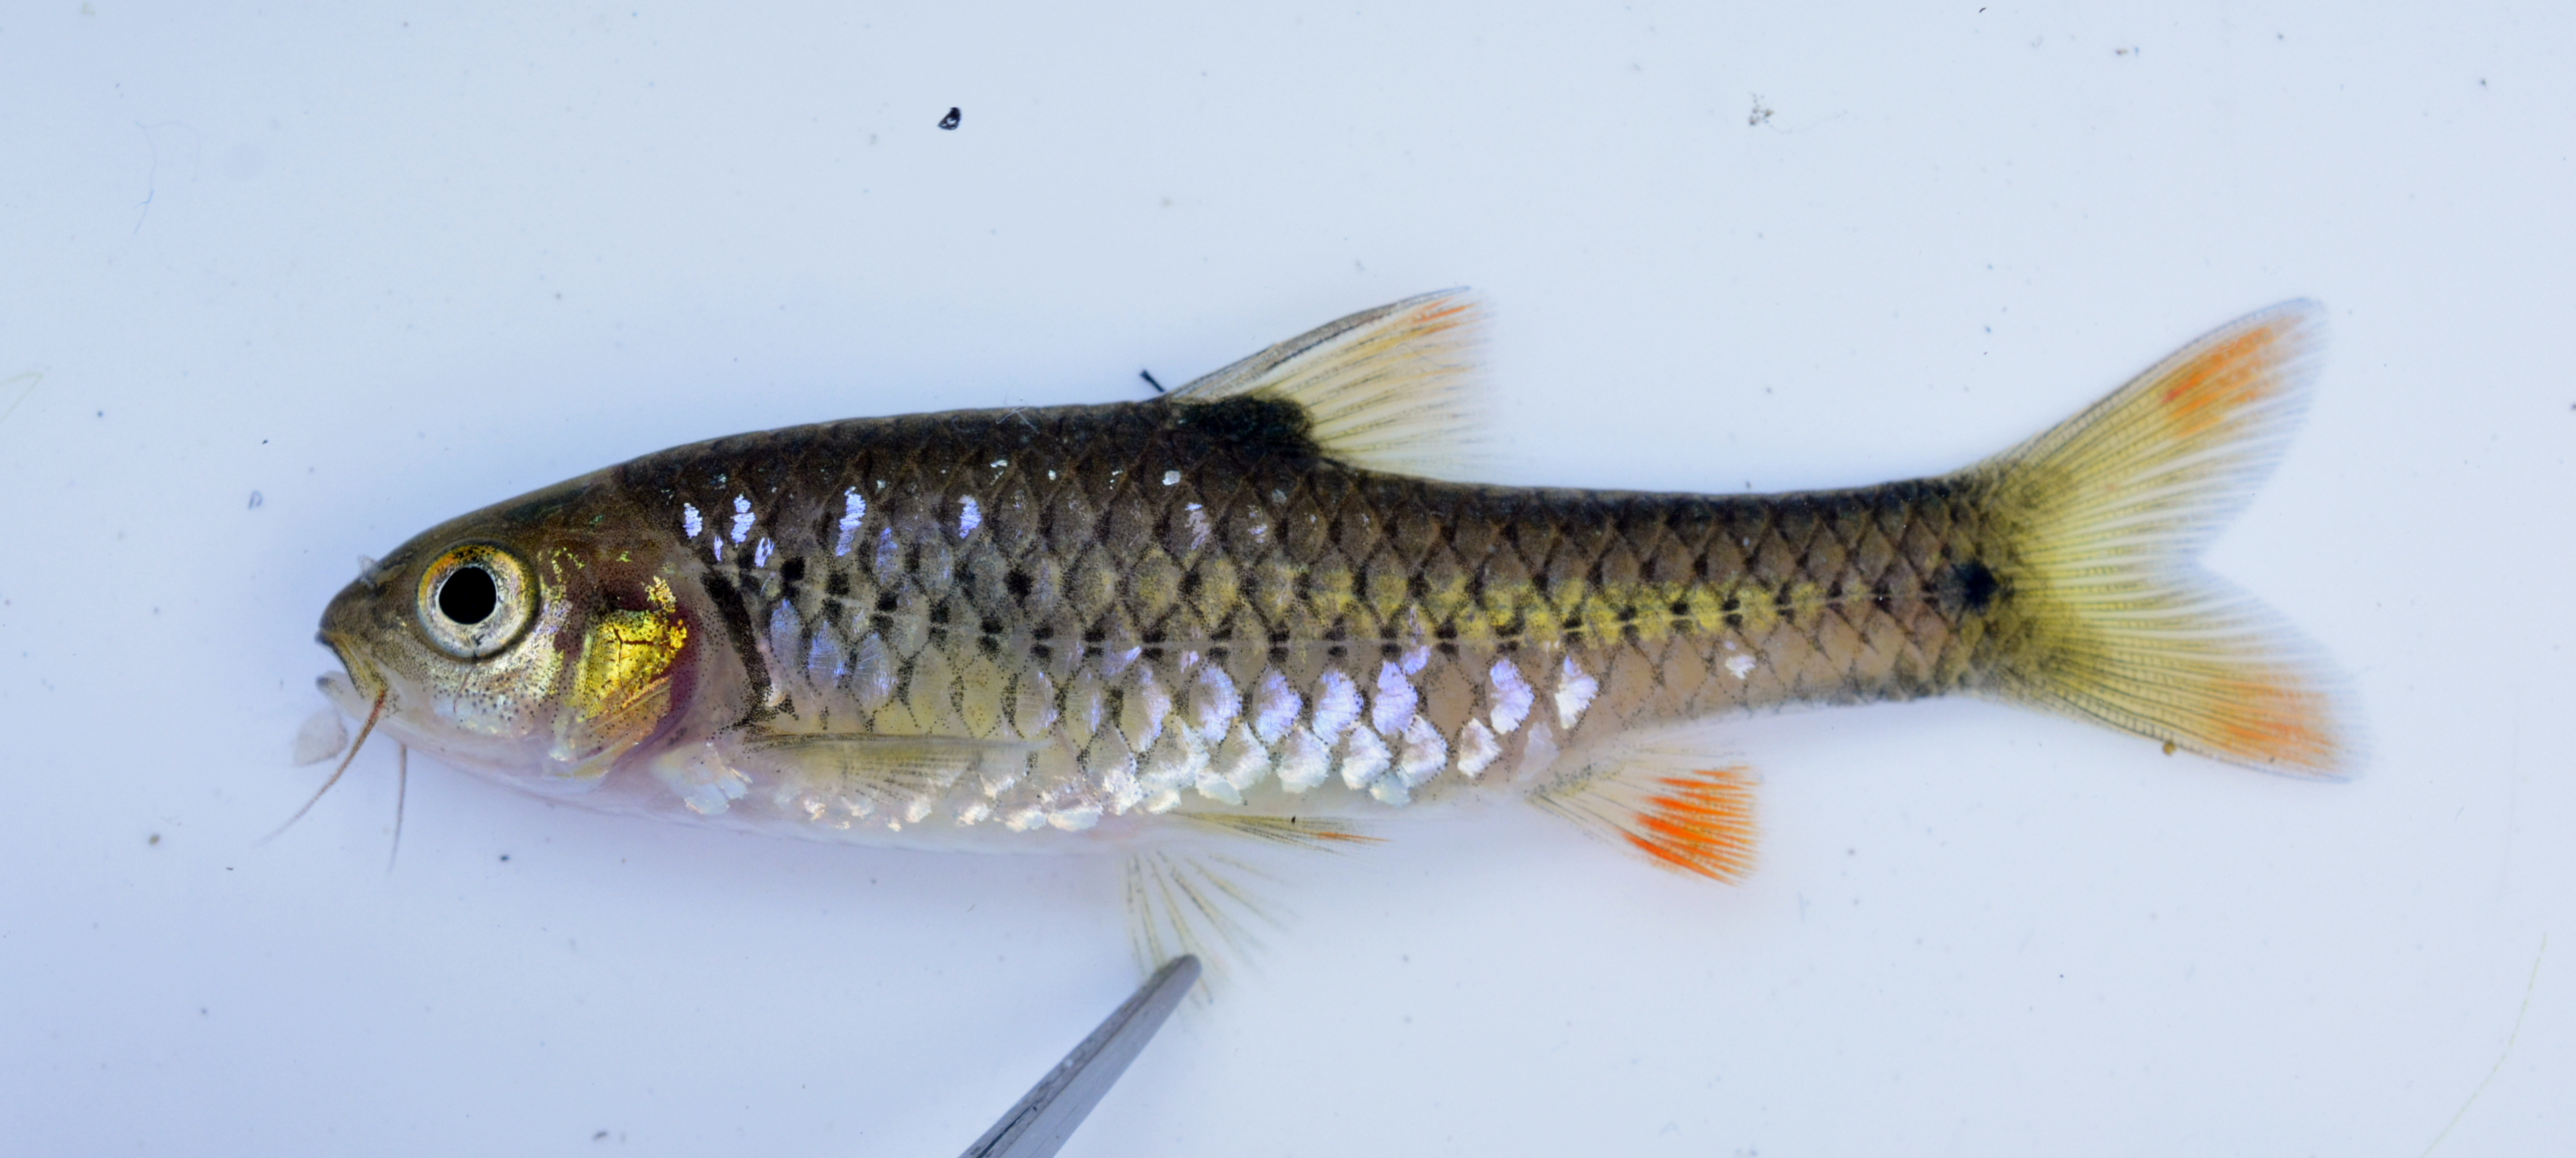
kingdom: Animalia
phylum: Chordata
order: Cypriniformes
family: Cyprinidae
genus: Enteromius
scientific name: Enteromius kerstenii
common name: Redspot barb
